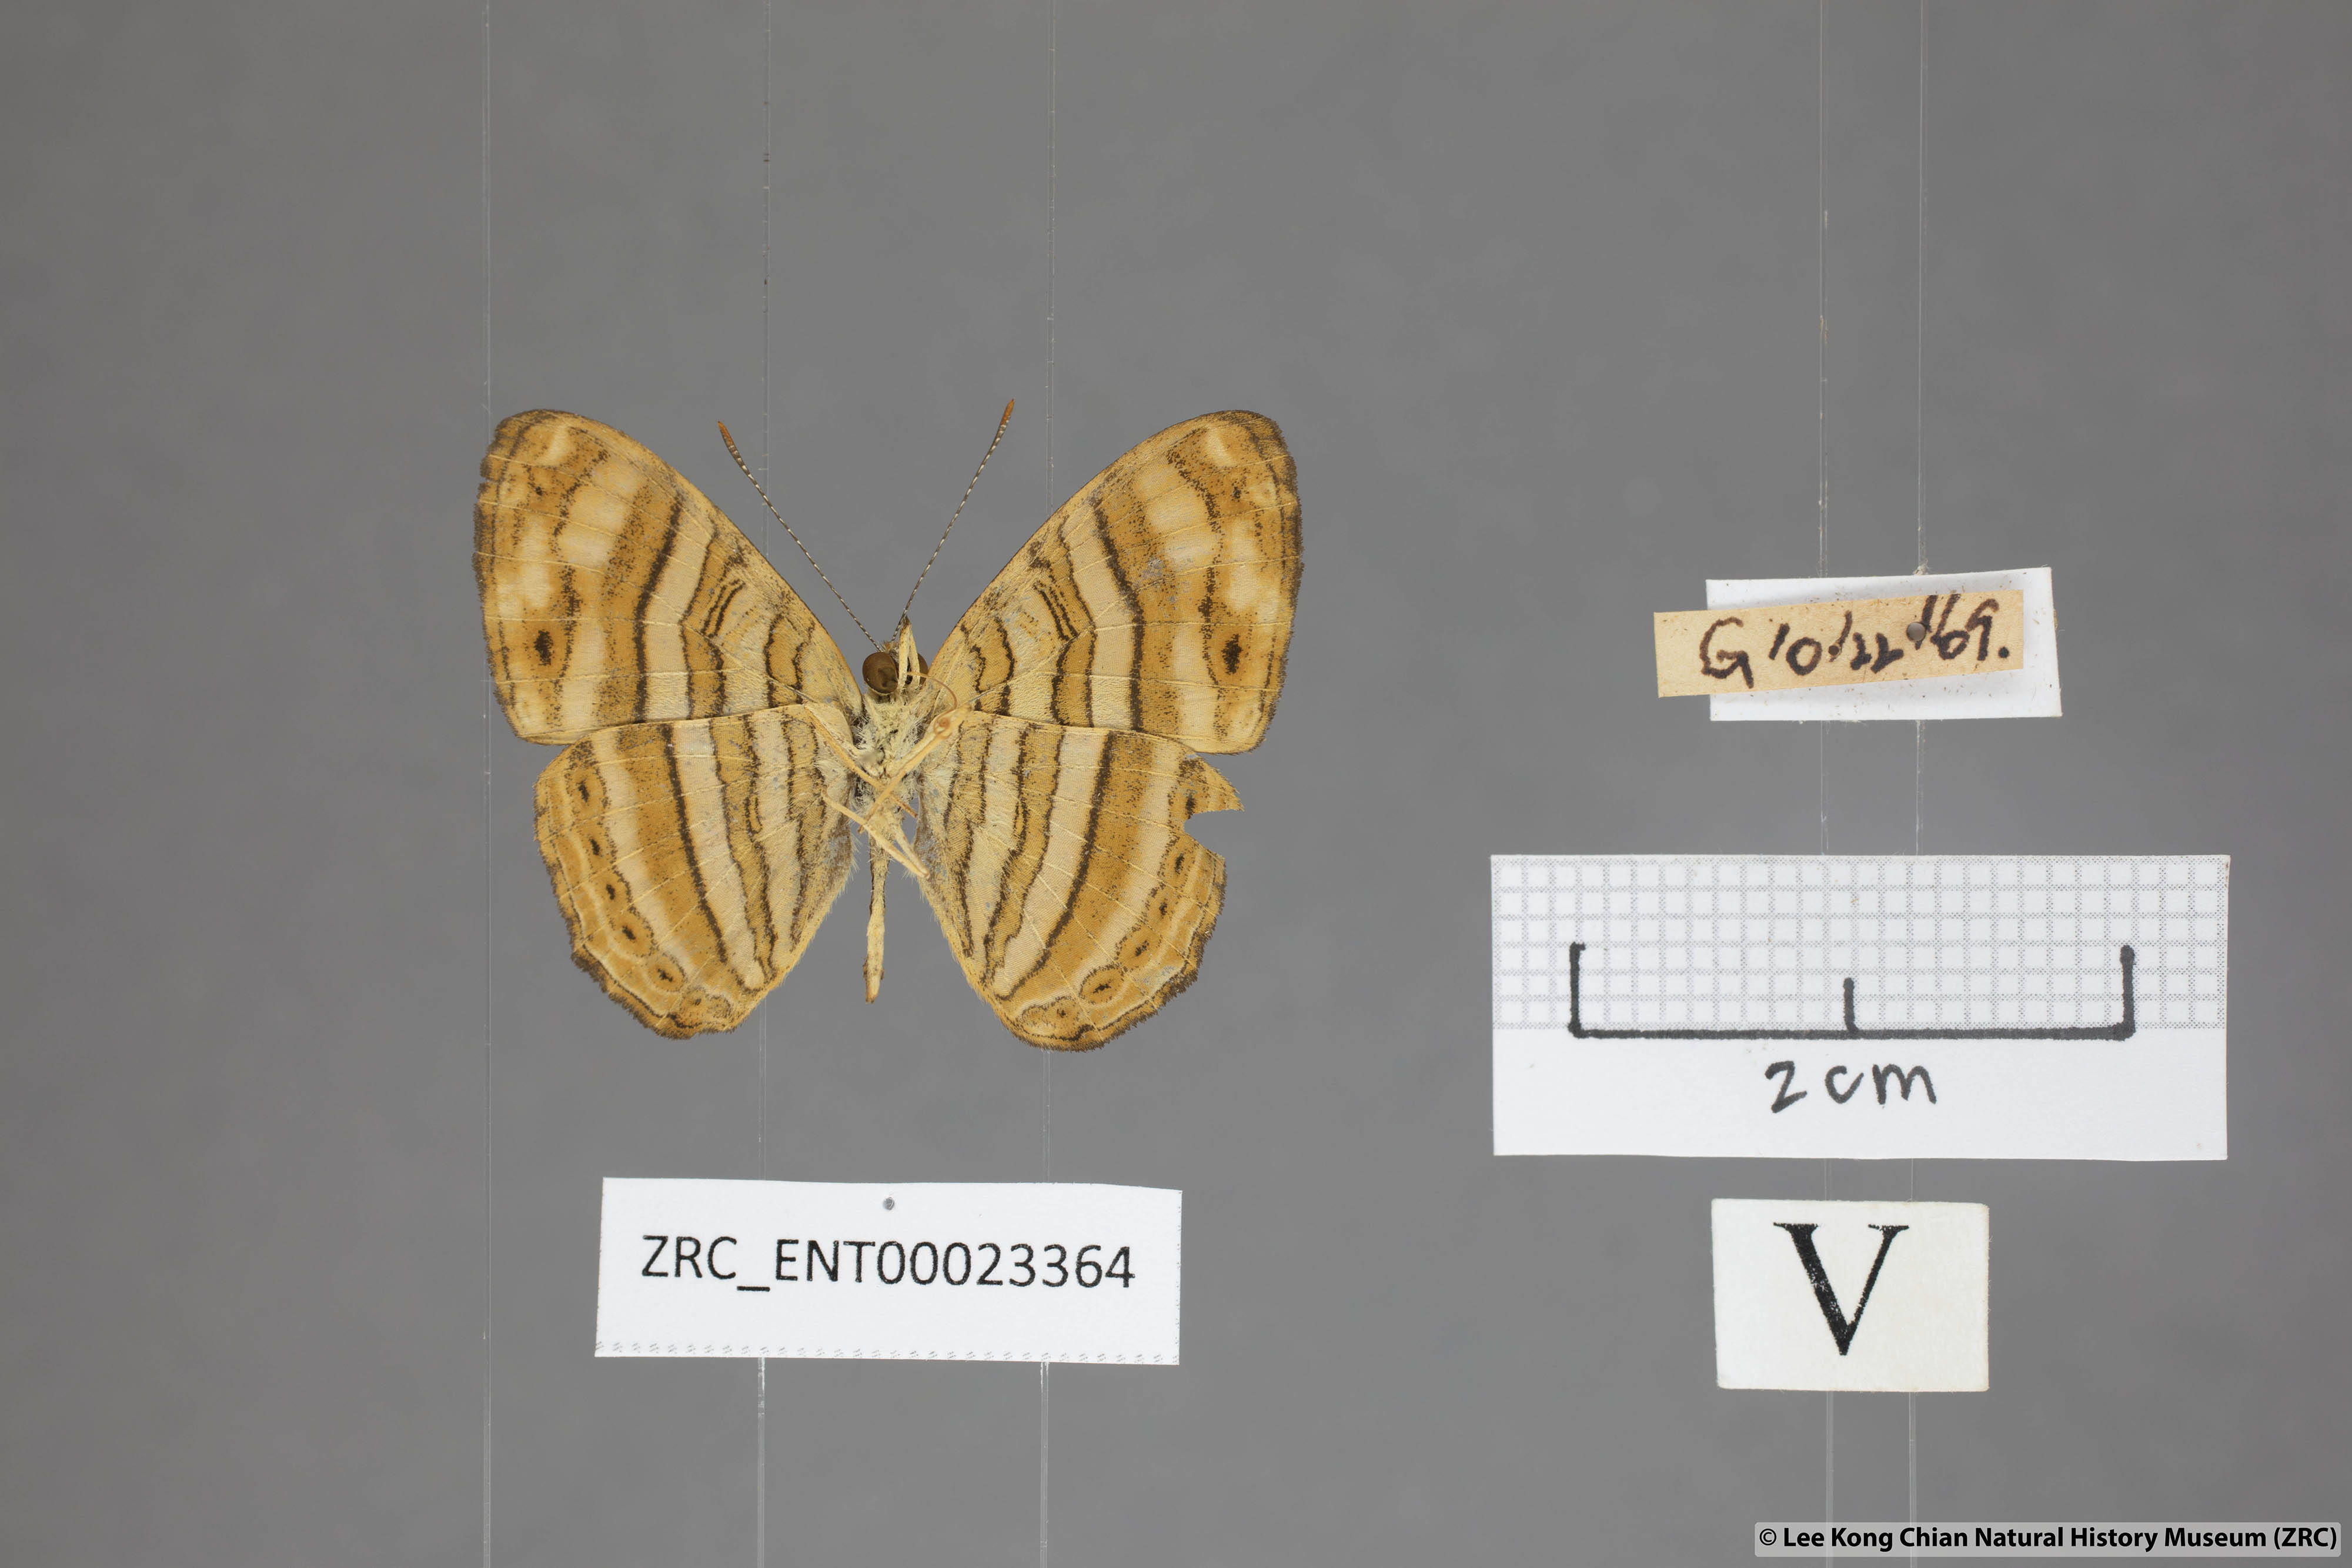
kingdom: Animalia
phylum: Arthropoda
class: Insecta
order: Lepidoptera
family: Nymphalidae
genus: Chersonesia
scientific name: Chersonesia peraka
